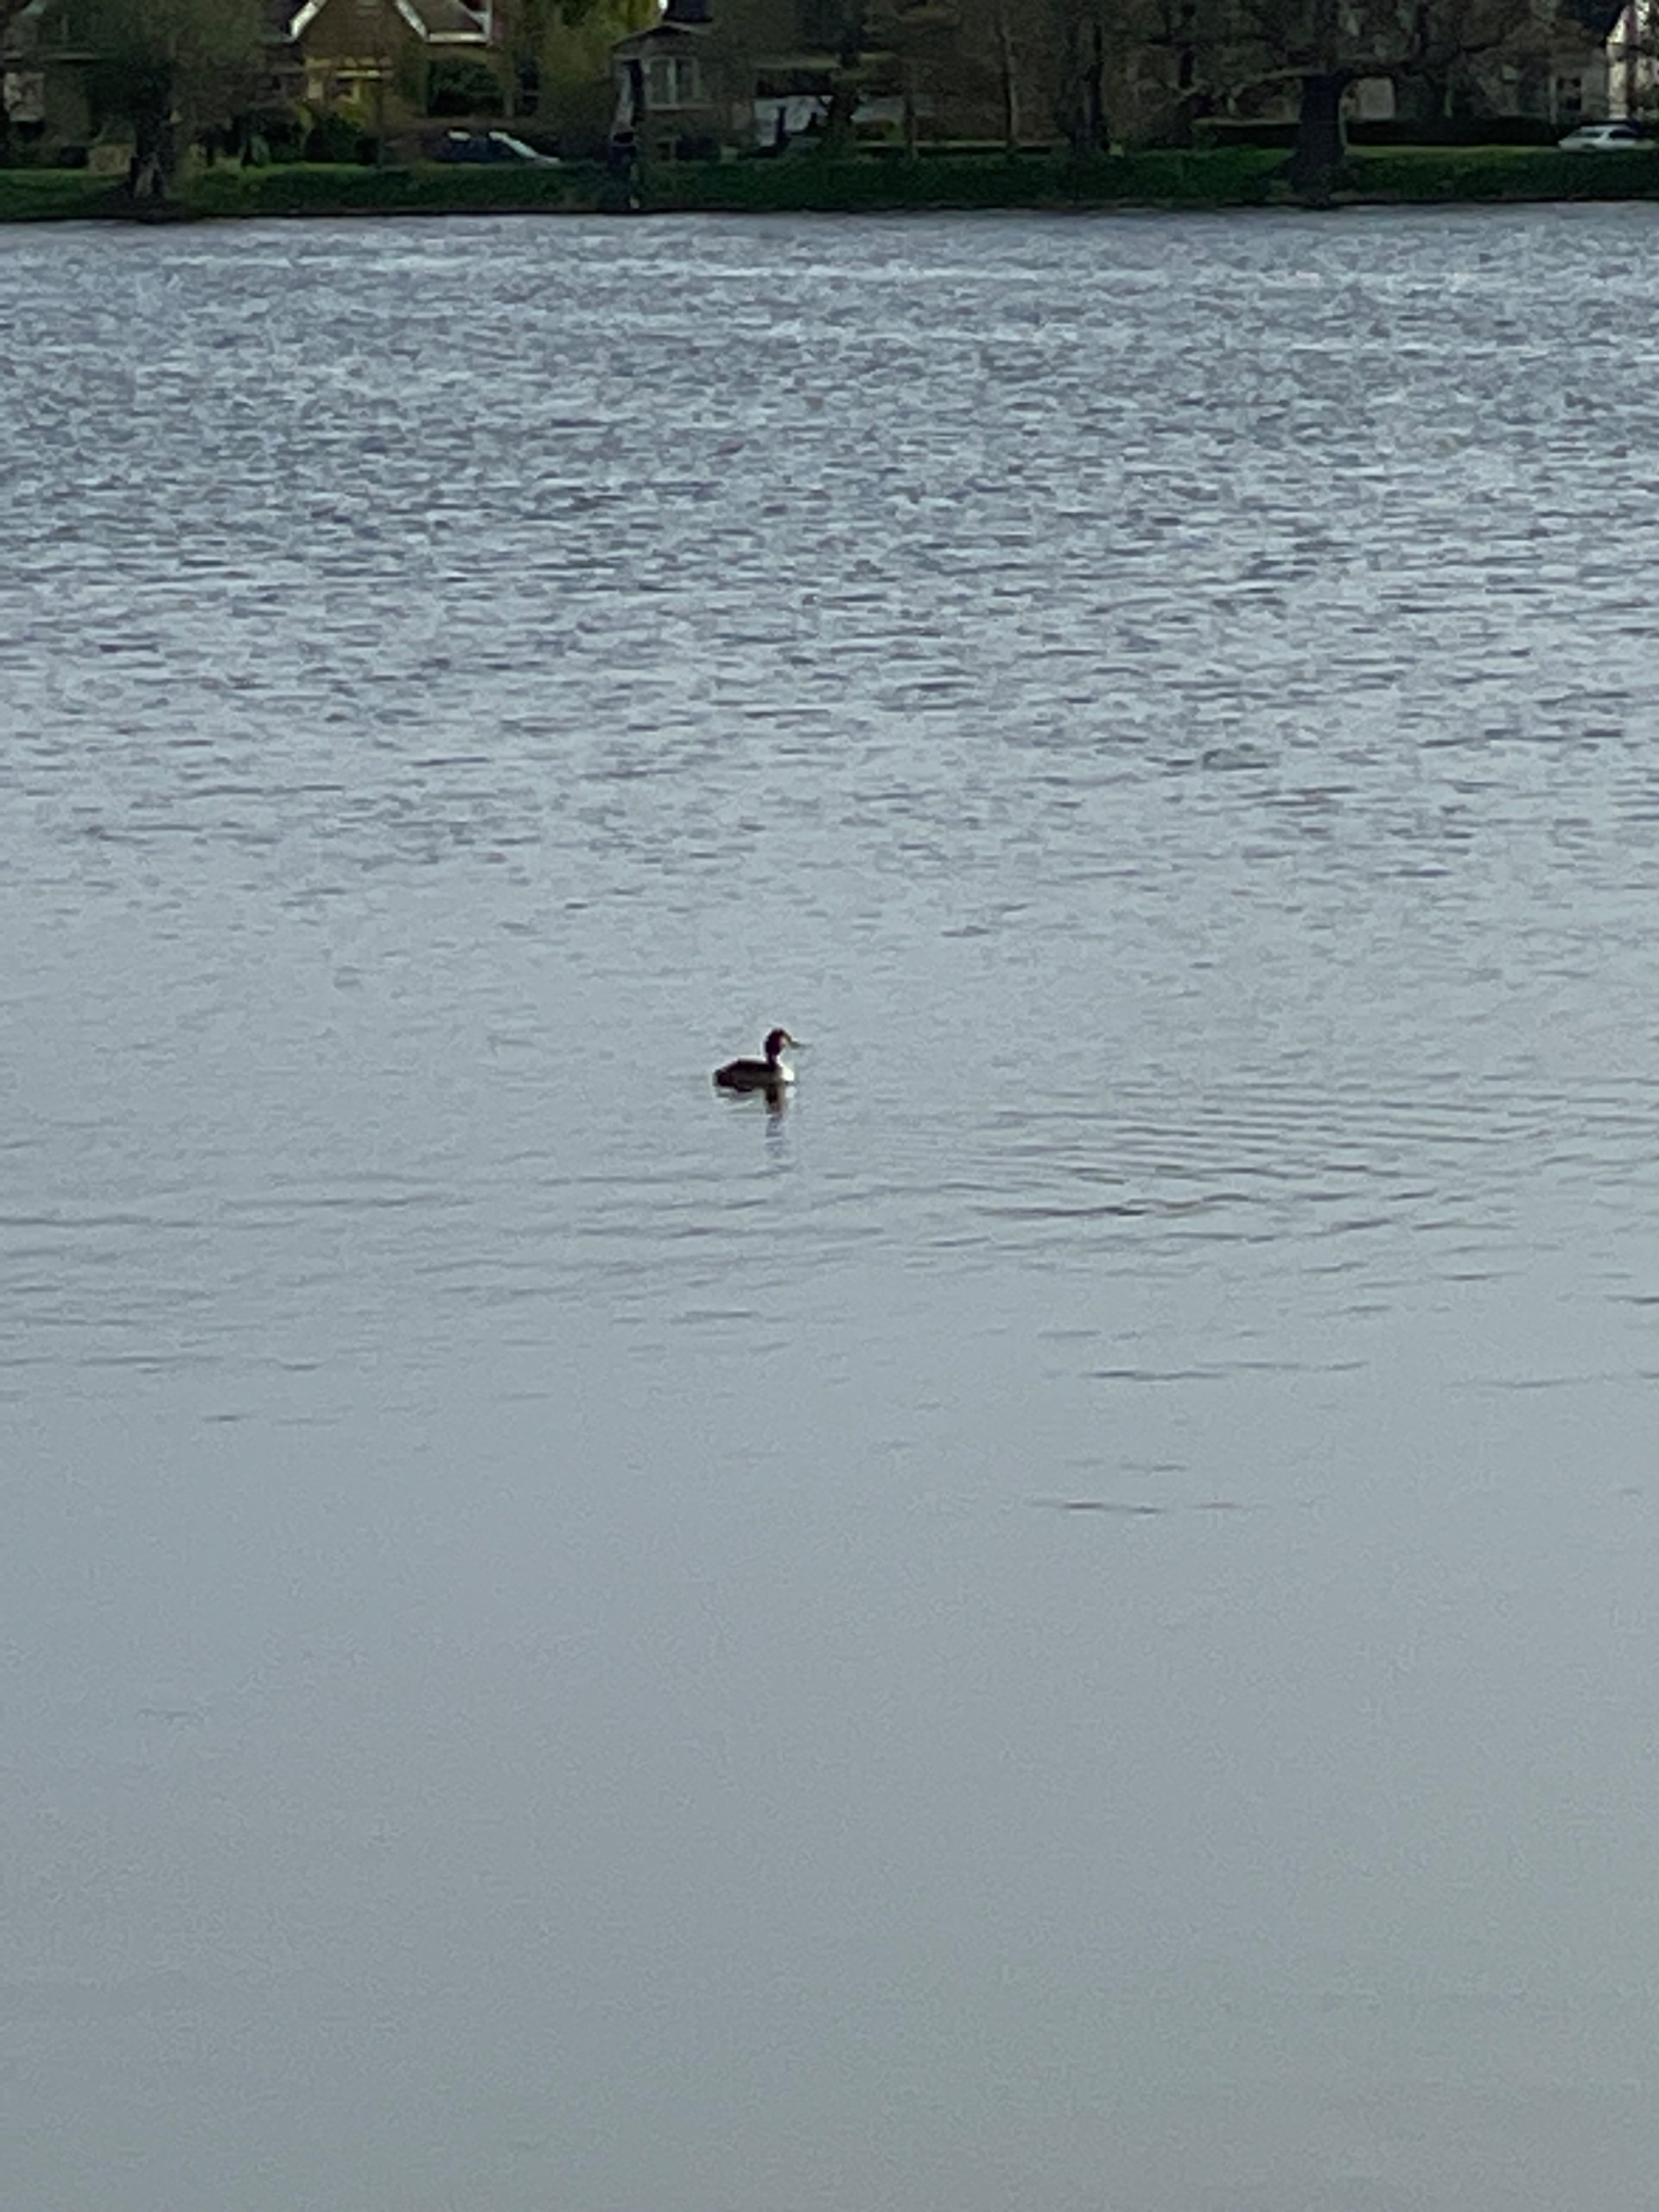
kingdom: Animalia
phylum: Chordata
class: Aves
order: Podicipediformes
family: Podicipedidae
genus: Podiceps
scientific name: Podiceps cristatus
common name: Toppet lappedykker
